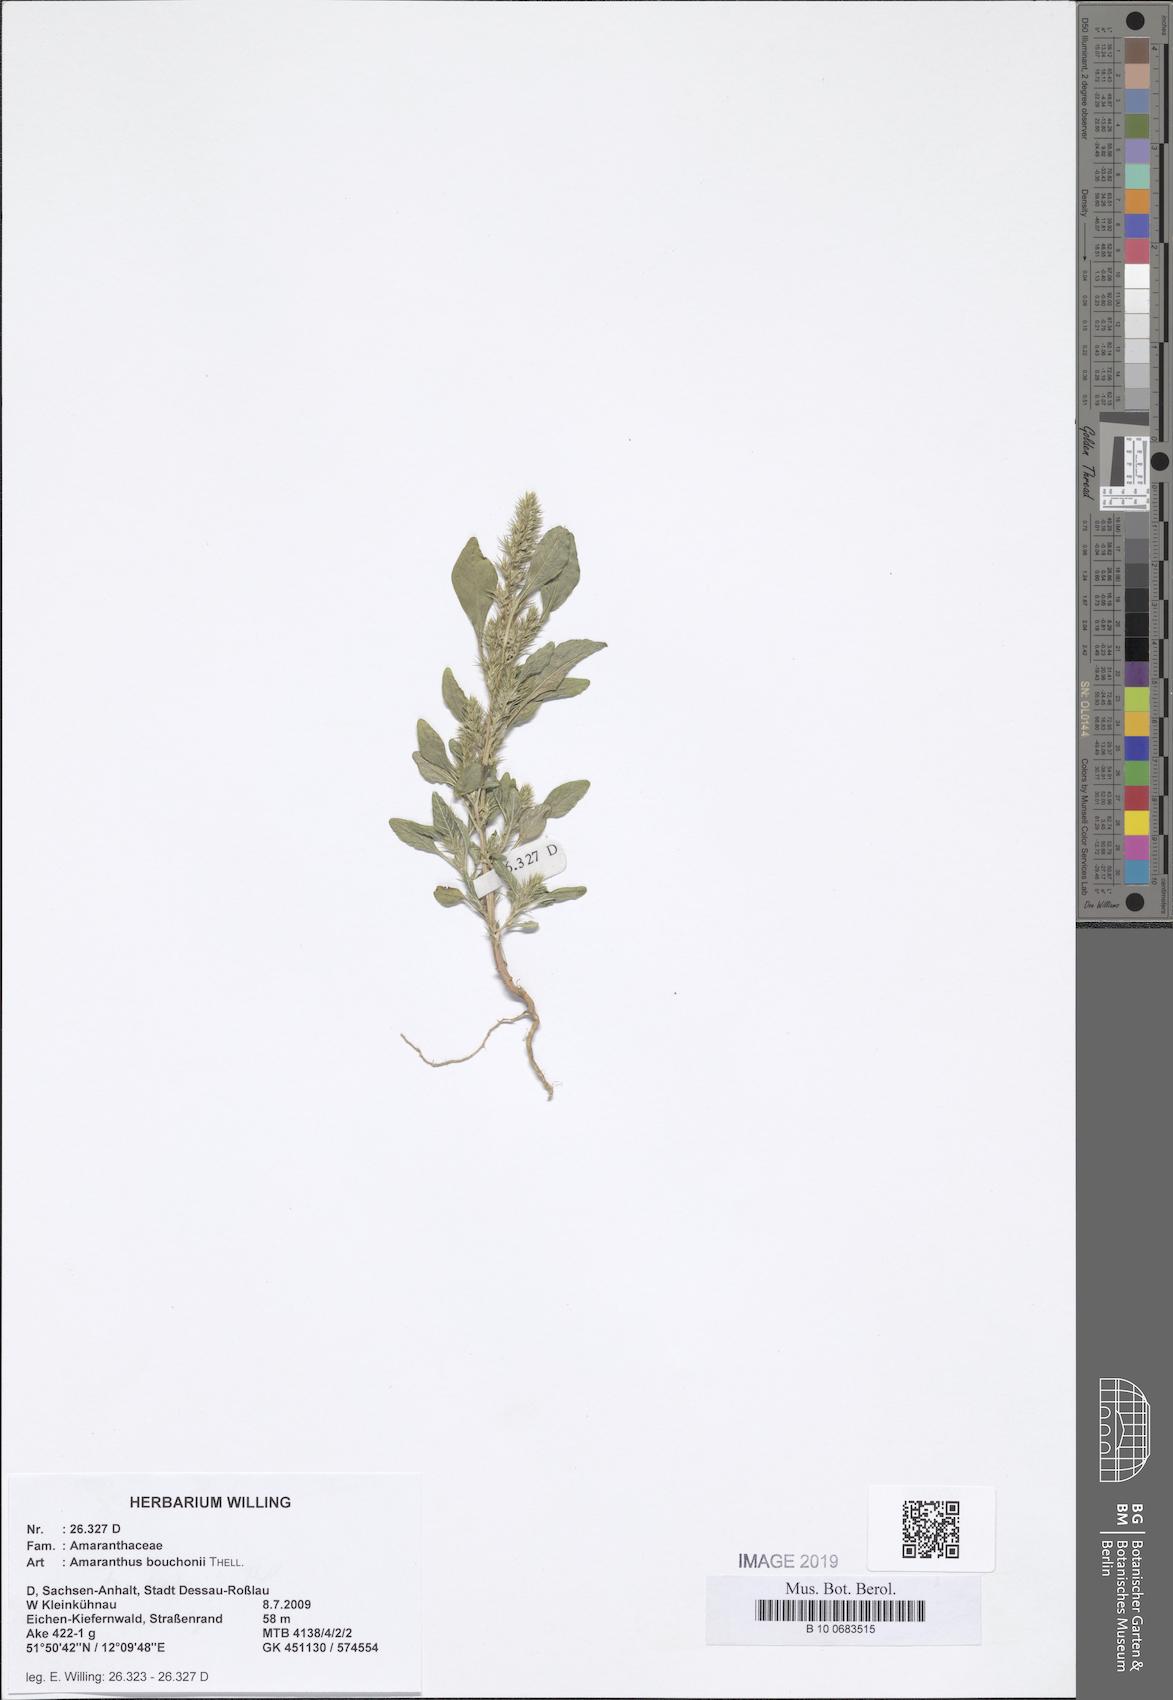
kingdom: Plantae
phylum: Tracheophyta
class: Magnoliopsida
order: Caryophyllales
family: Amaranthaceae
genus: Amaranthus
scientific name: Amaranthus bouchonii
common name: Indehiscent amaranth
